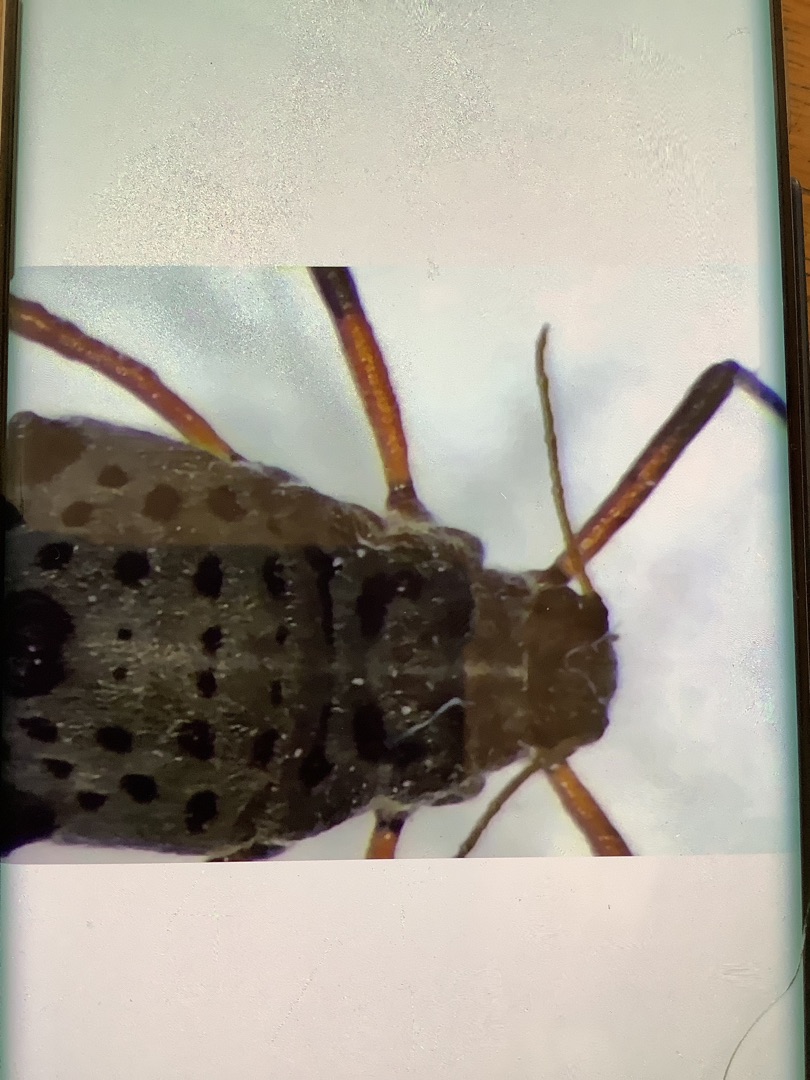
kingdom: Animalia
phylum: Arthropoda
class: Insecta
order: Hemiptera
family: Aphididae
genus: Tuberolachnus
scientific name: Tuberolachnus salignus
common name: Pilegrenbladlus
